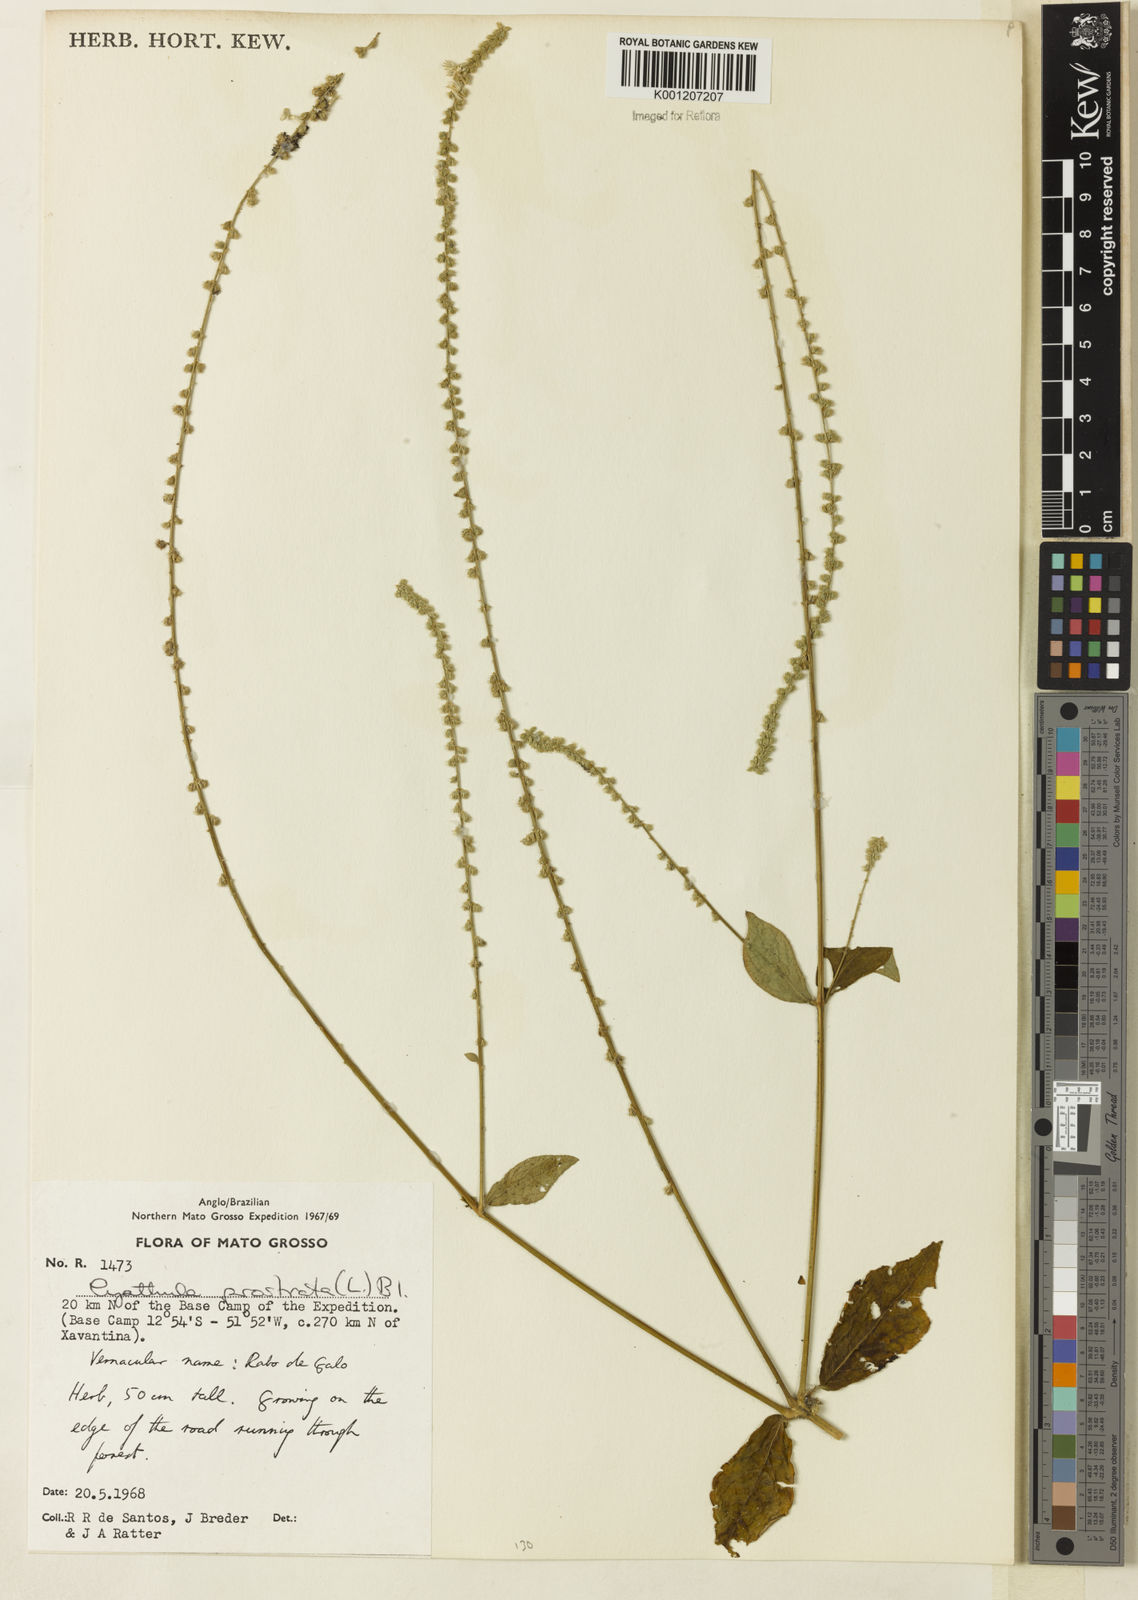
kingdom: Plantae
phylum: Tracheophyta
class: Magnoliopsida
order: Caryophyllales
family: Amaranthaceae
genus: Cyathula
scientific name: Cyathula prostrata
